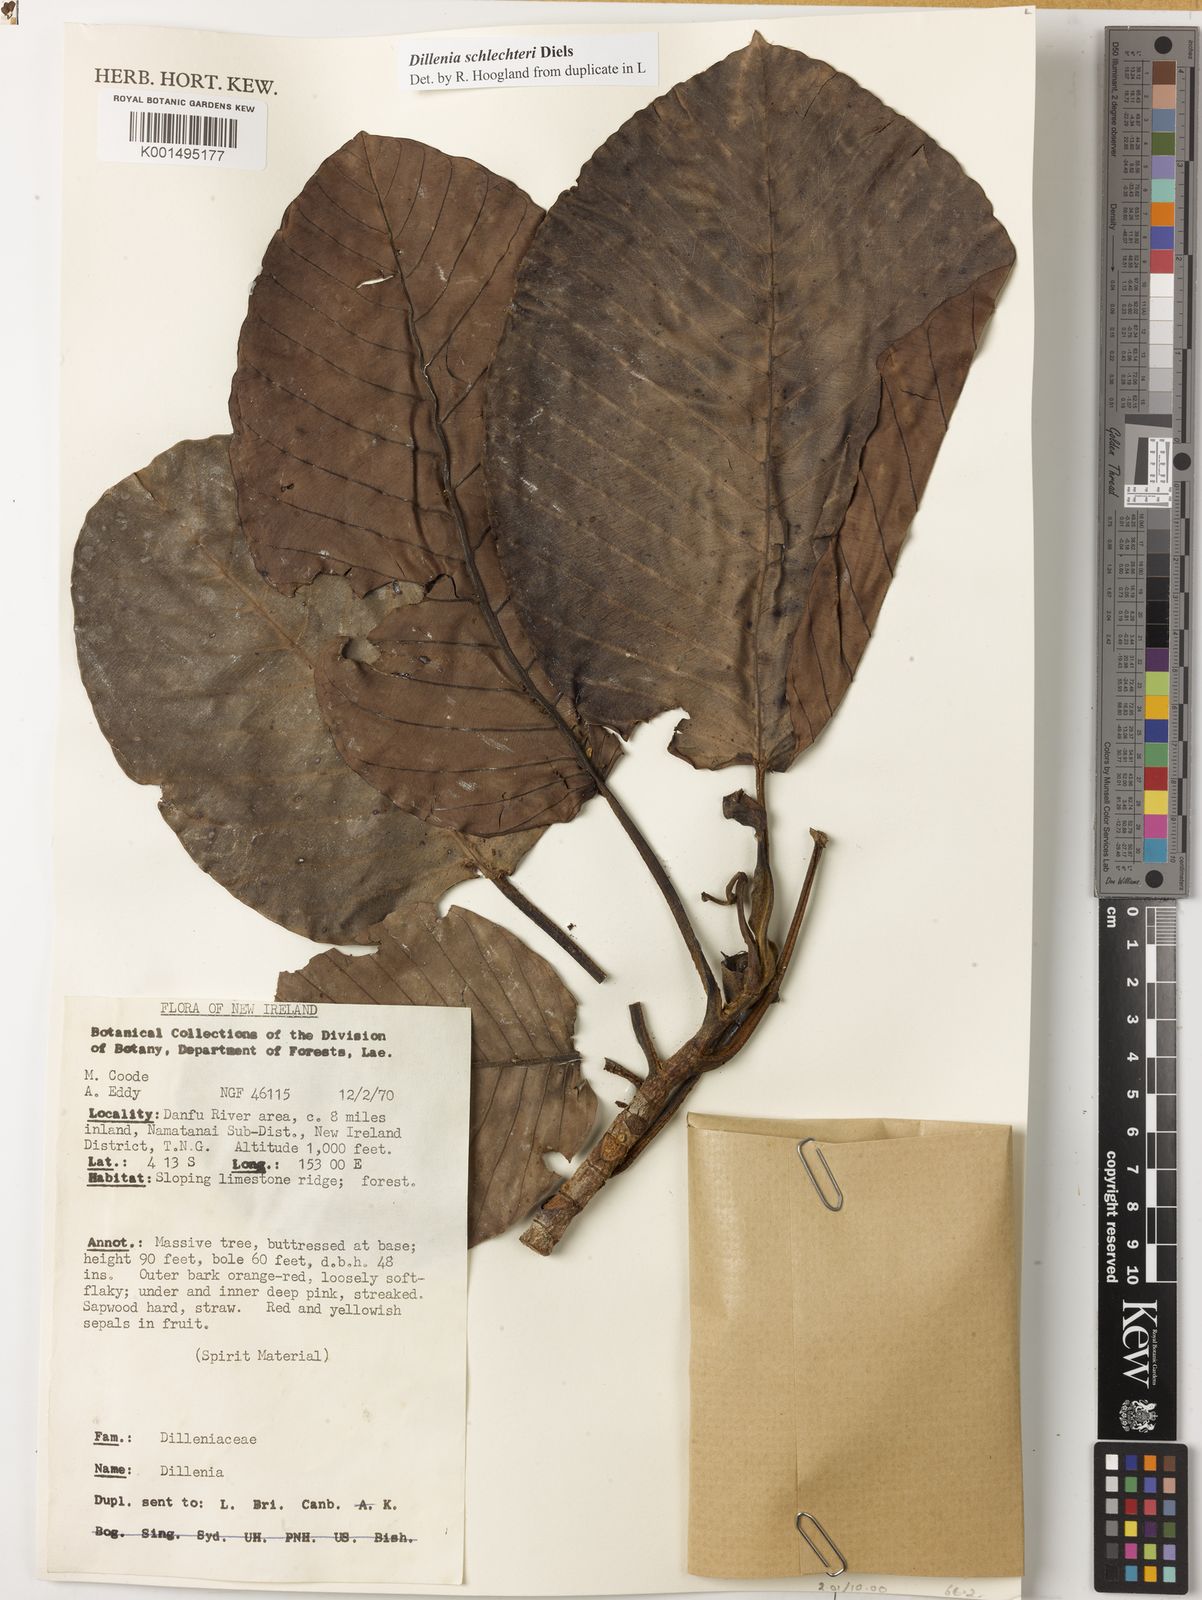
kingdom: Plantae
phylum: Tracheophyta
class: Magnoliopsida
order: Dilleniales
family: Dilleniaceae
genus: Dillenia
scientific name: Dillenia schlechteri
